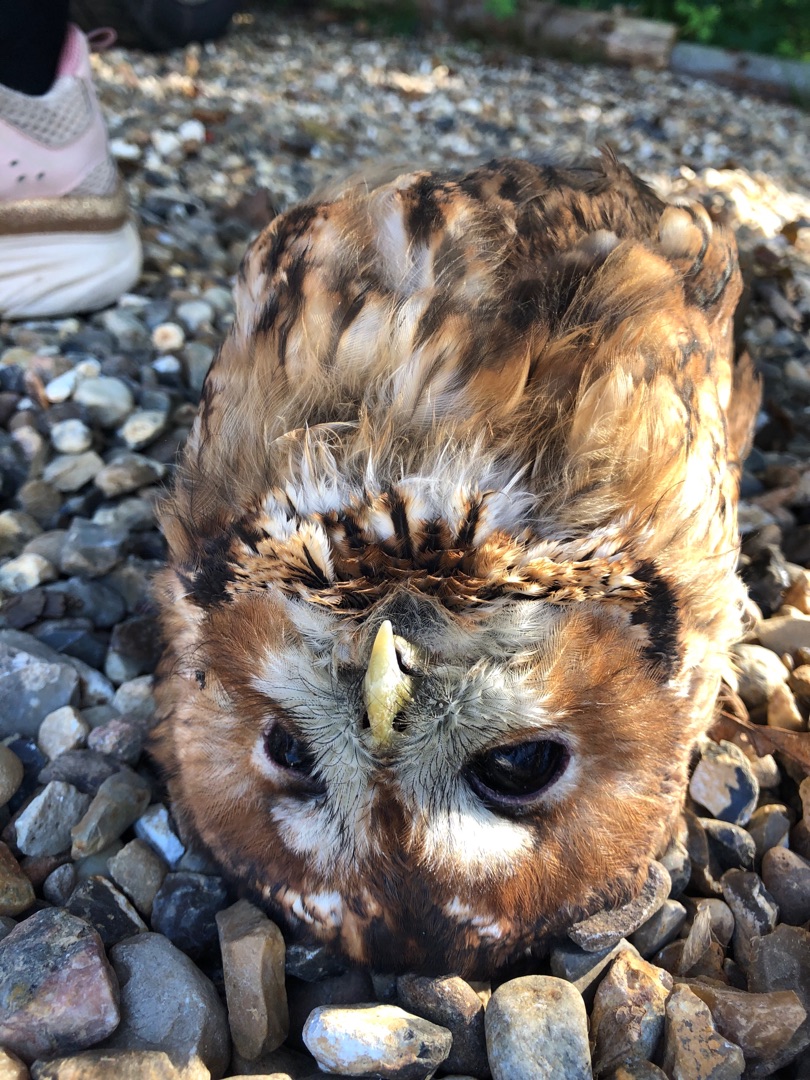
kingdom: Animalia
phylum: Chordata
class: Aves
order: Strigiformes
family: Strigidae
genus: Strix
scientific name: Strix aluco
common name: Natugle
